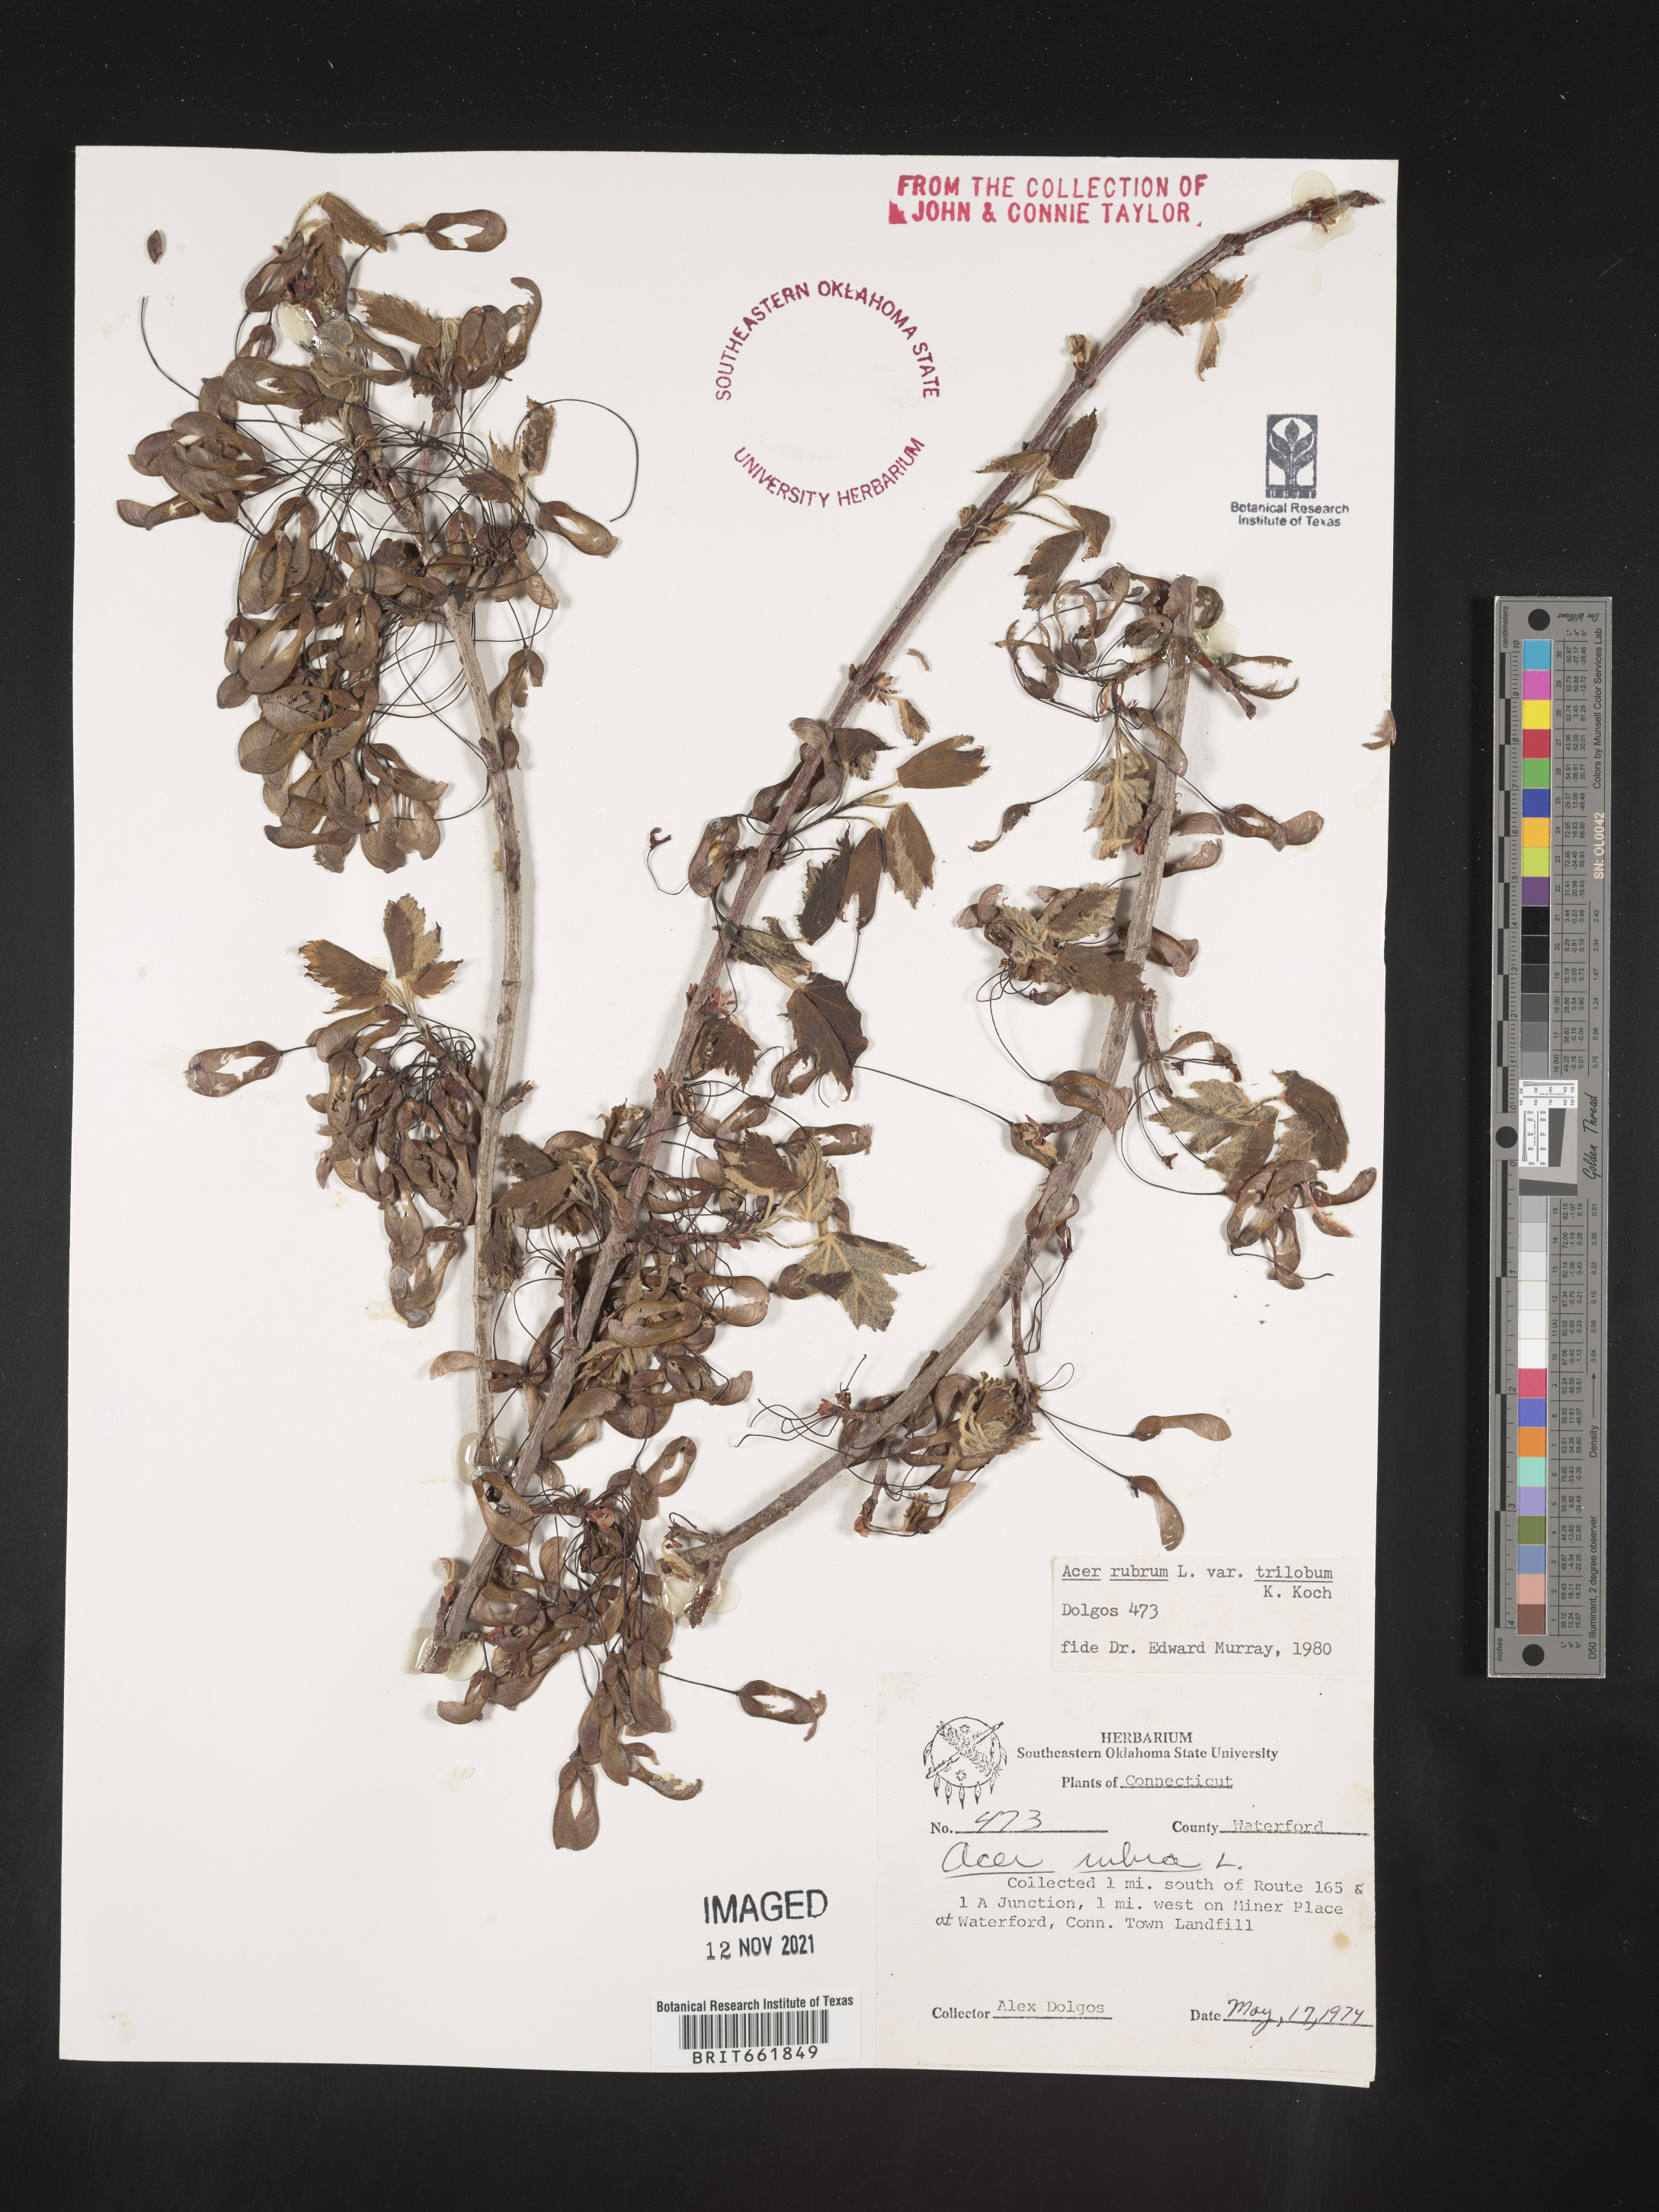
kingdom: Plantae
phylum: Tracheophyta
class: Magnoliopsida
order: Sapindales
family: Sapindaceae
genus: Acer
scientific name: Acer rubrum
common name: Red maple
